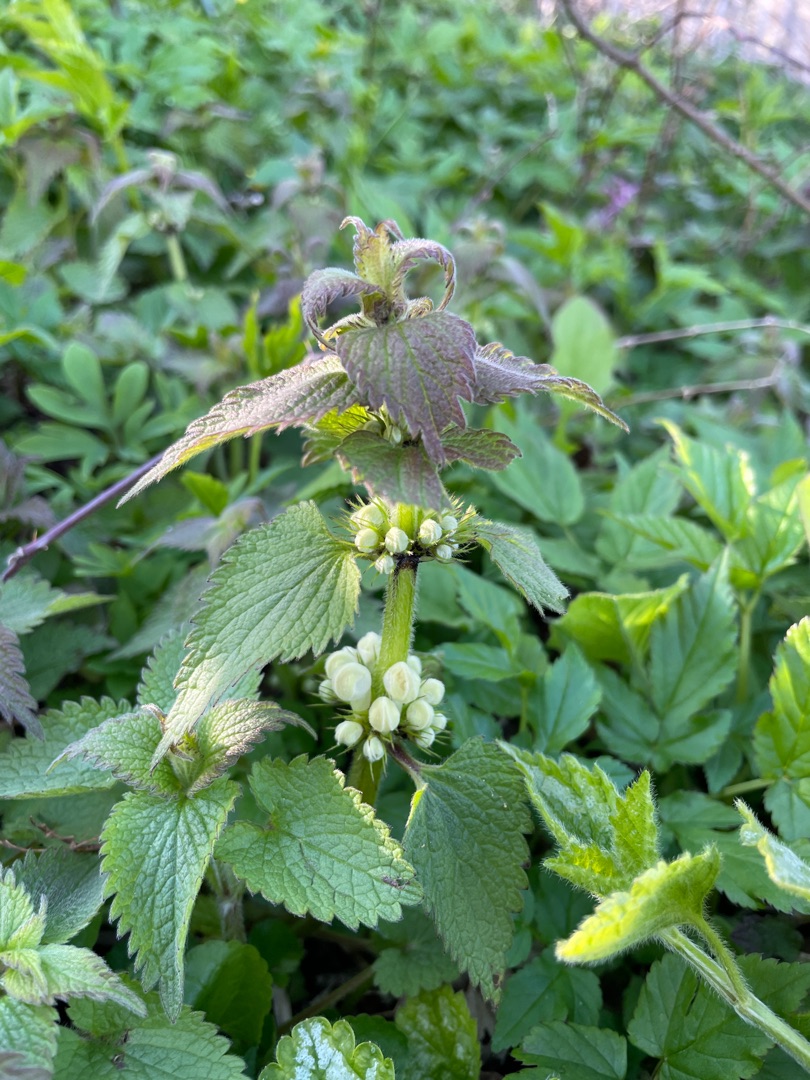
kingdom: Plantae
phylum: Tracheophyta
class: Magnoliopsida
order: Lamiales
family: Lamiaceae
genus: Lamium
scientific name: Lamium album
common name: Døvnælde
